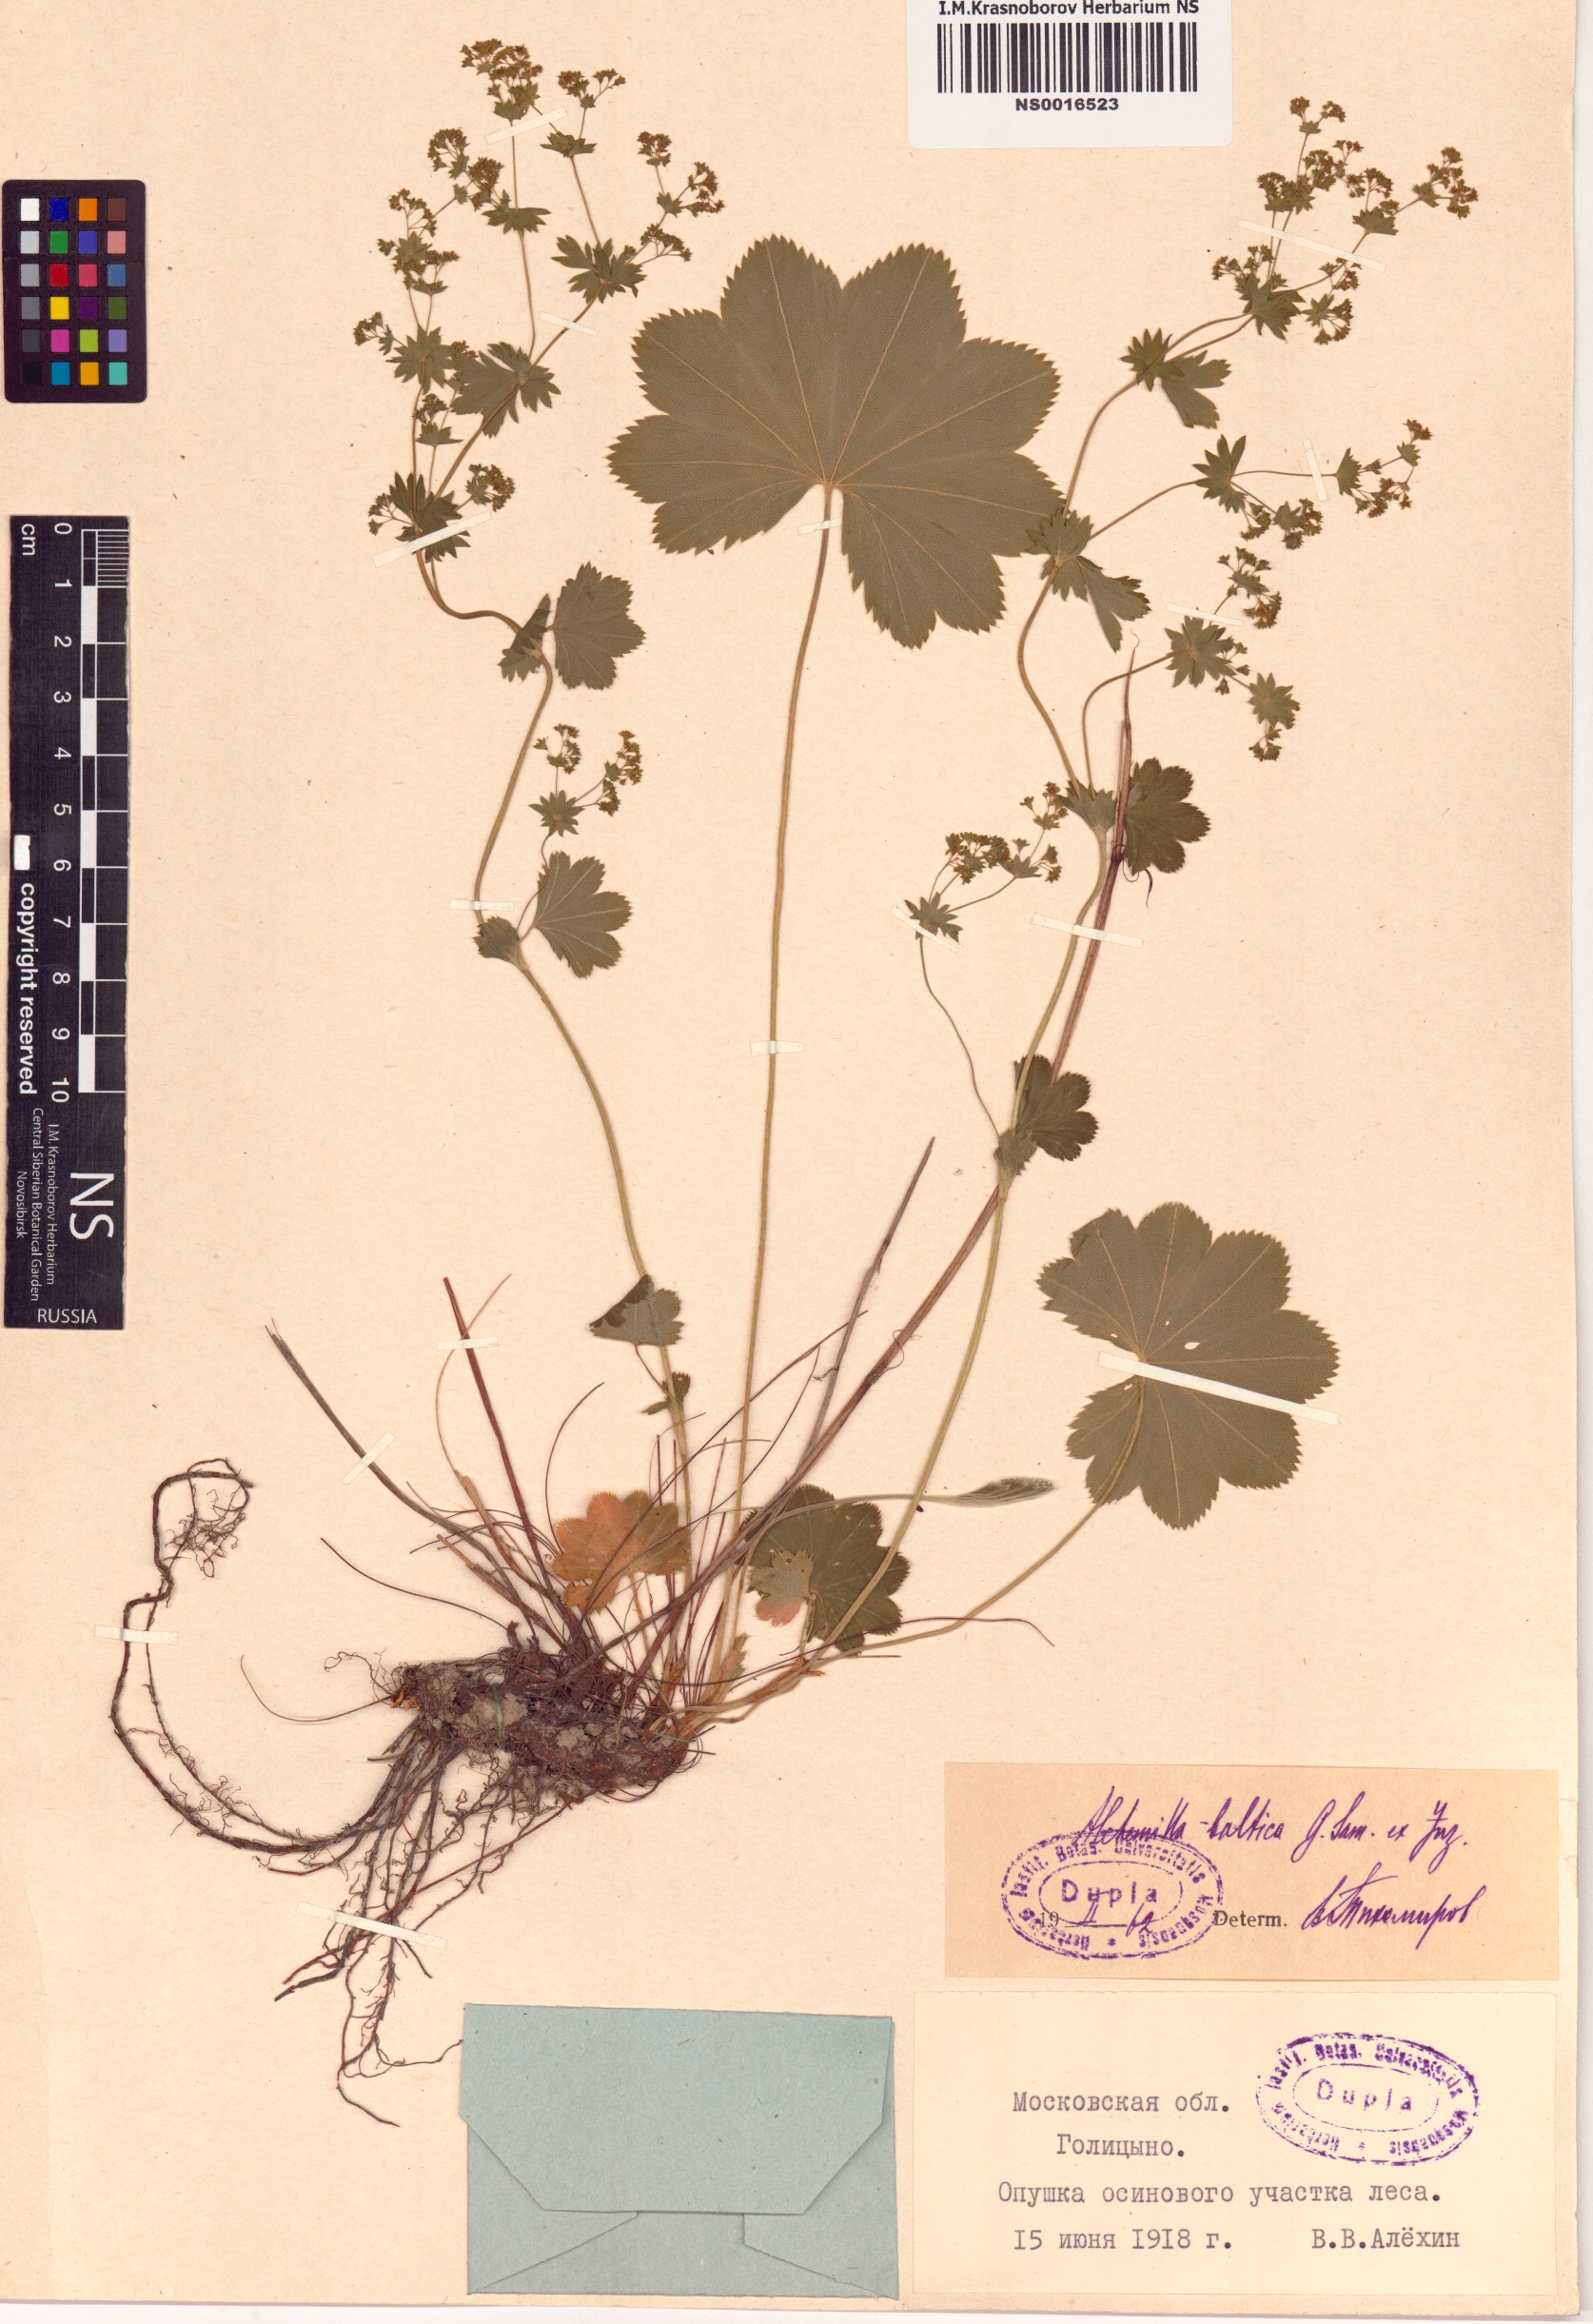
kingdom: Plantae
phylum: Tracheophyta
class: Magnoliopsida
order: Rosales
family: Rosaceae
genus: Alchemilla
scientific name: Alchemilla baltica
